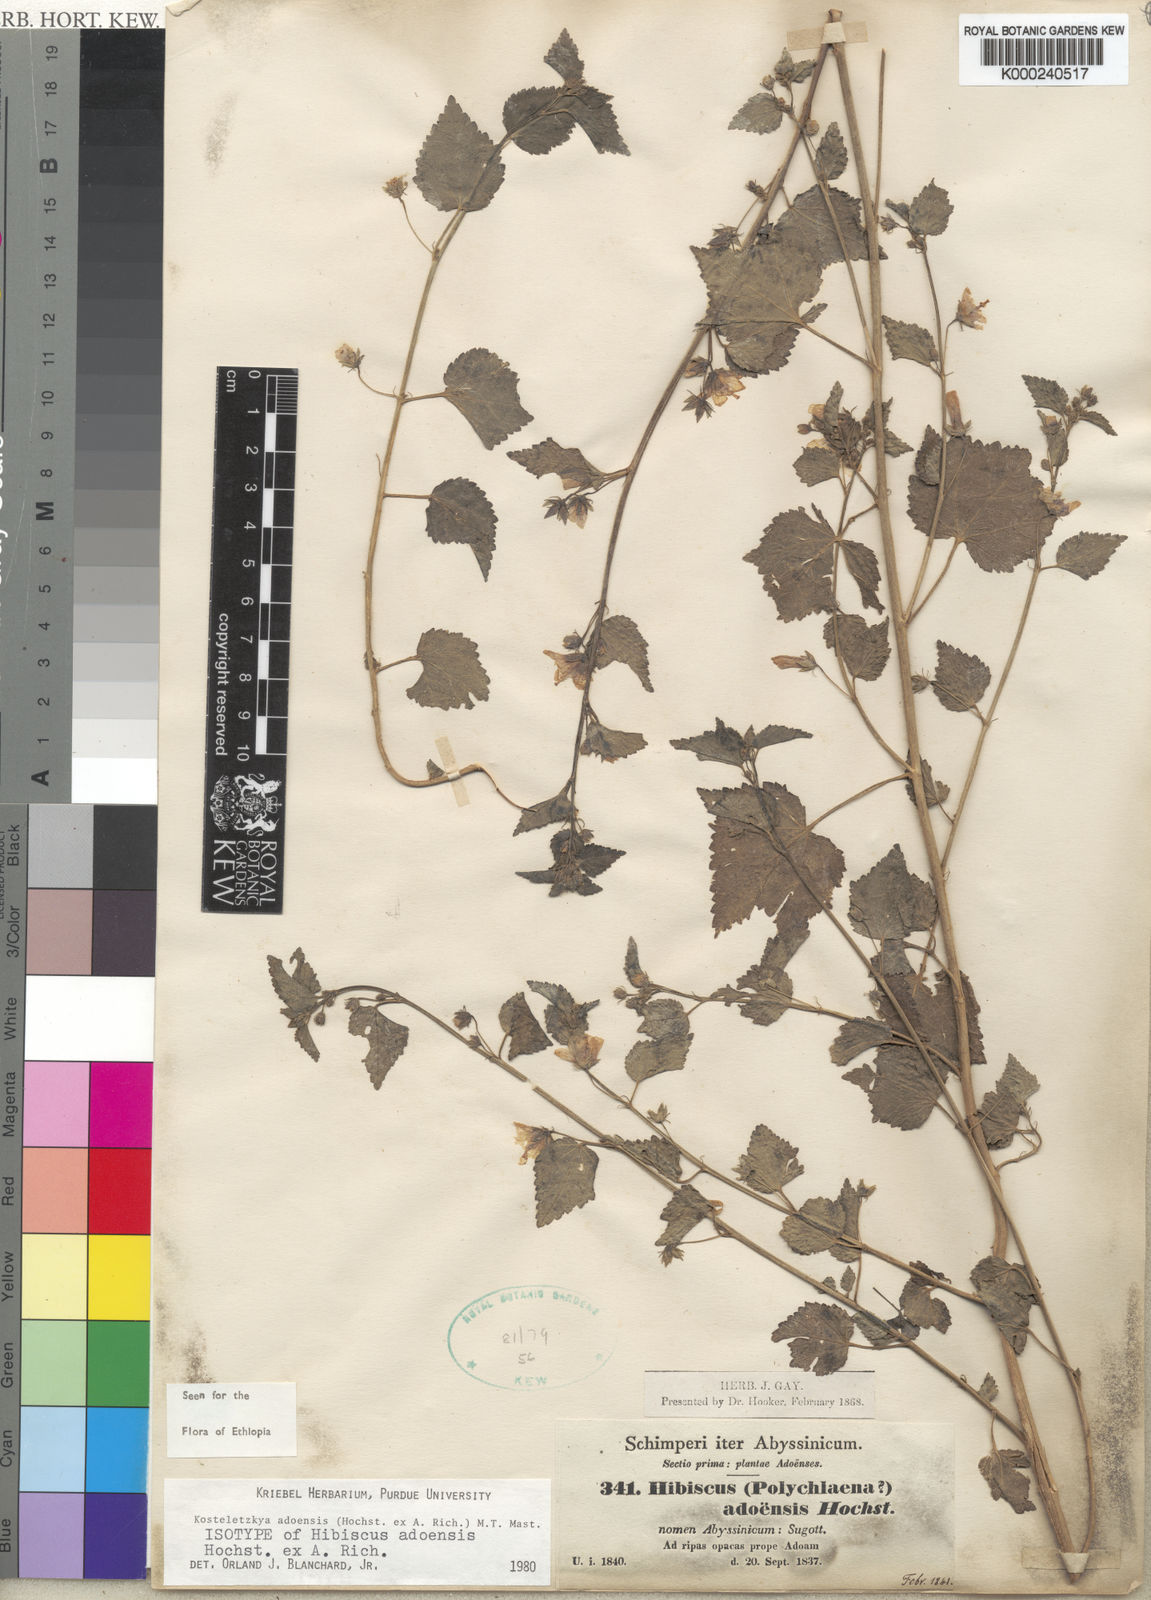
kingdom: Plantae
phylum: Tracheophyta
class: Magnoliopsida
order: Malvales
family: Malvaceae
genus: Kosteletzkya
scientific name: Kosteletzkya adoensis
